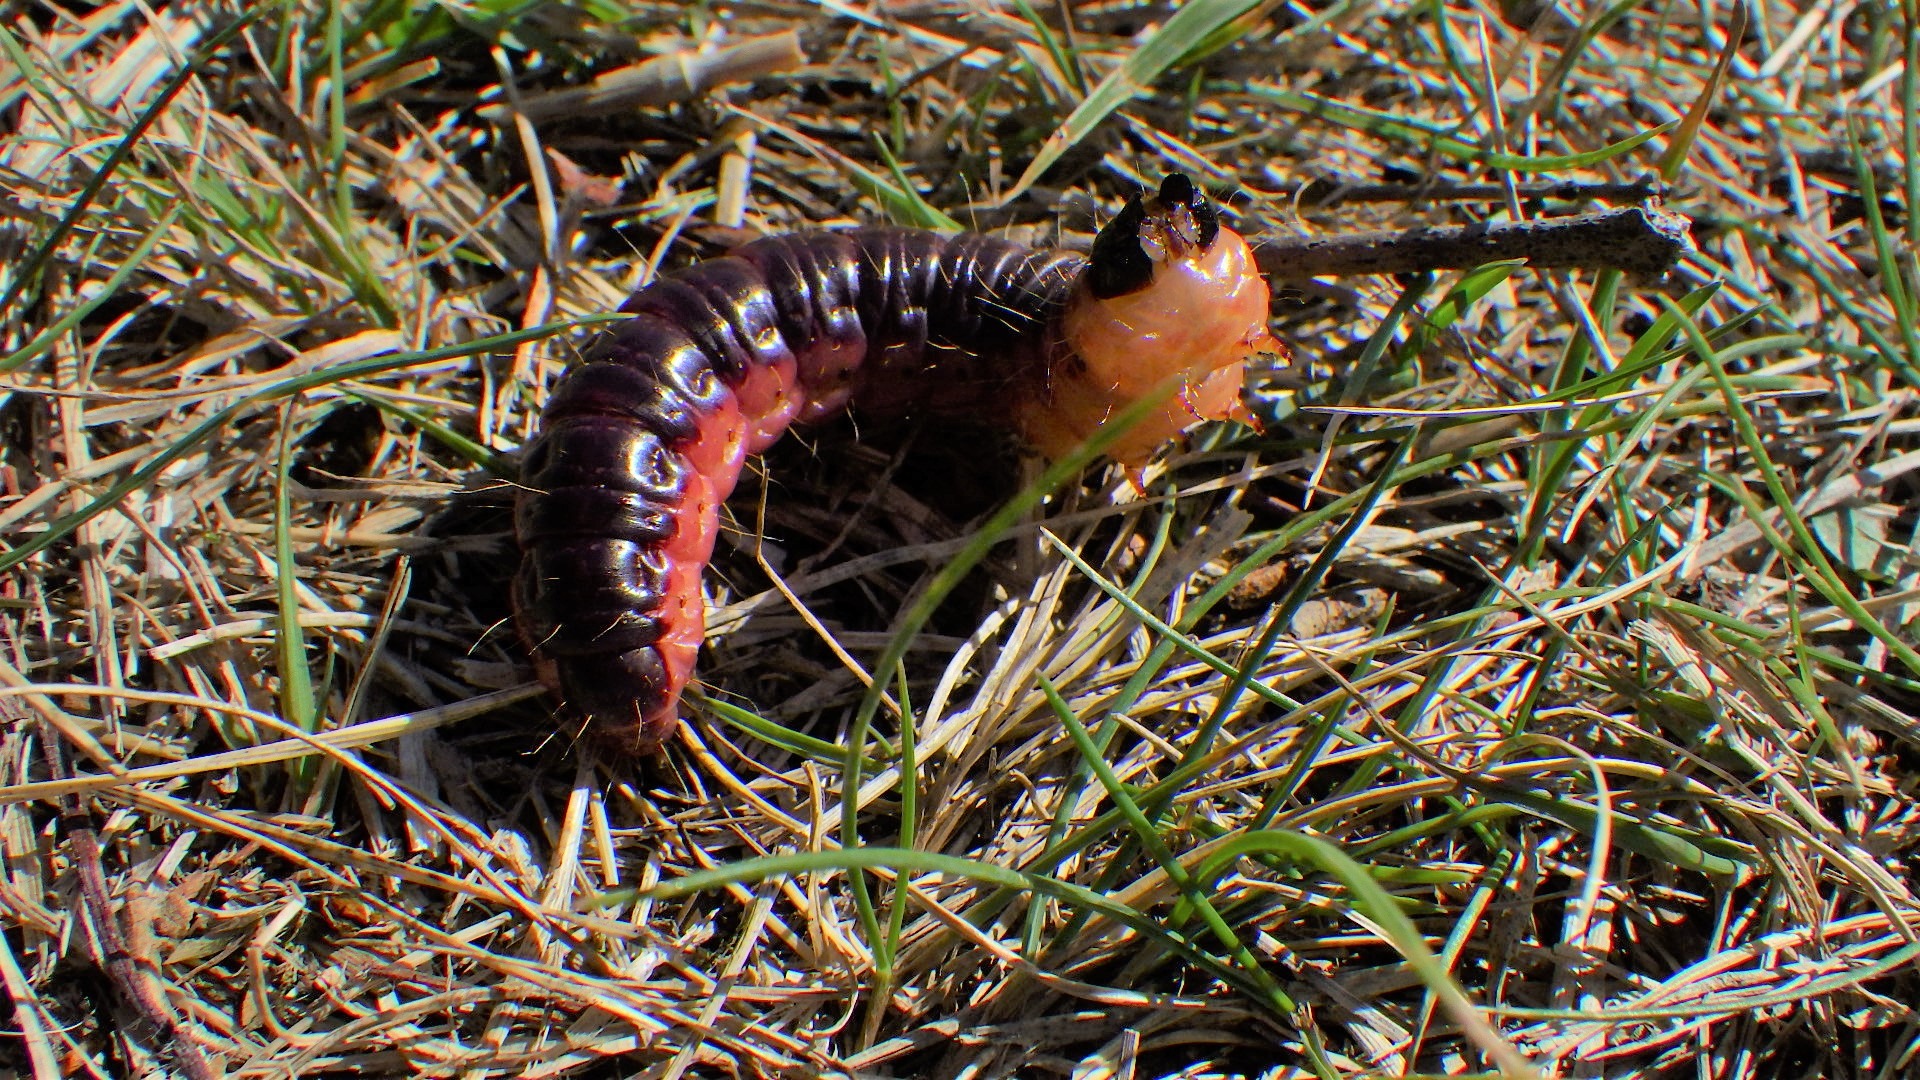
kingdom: Animalia
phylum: Arthropoda
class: Insecta
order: Lepidoptera
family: Cossidae
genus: Cossus
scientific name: Cossus cossus
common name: Pileborer
